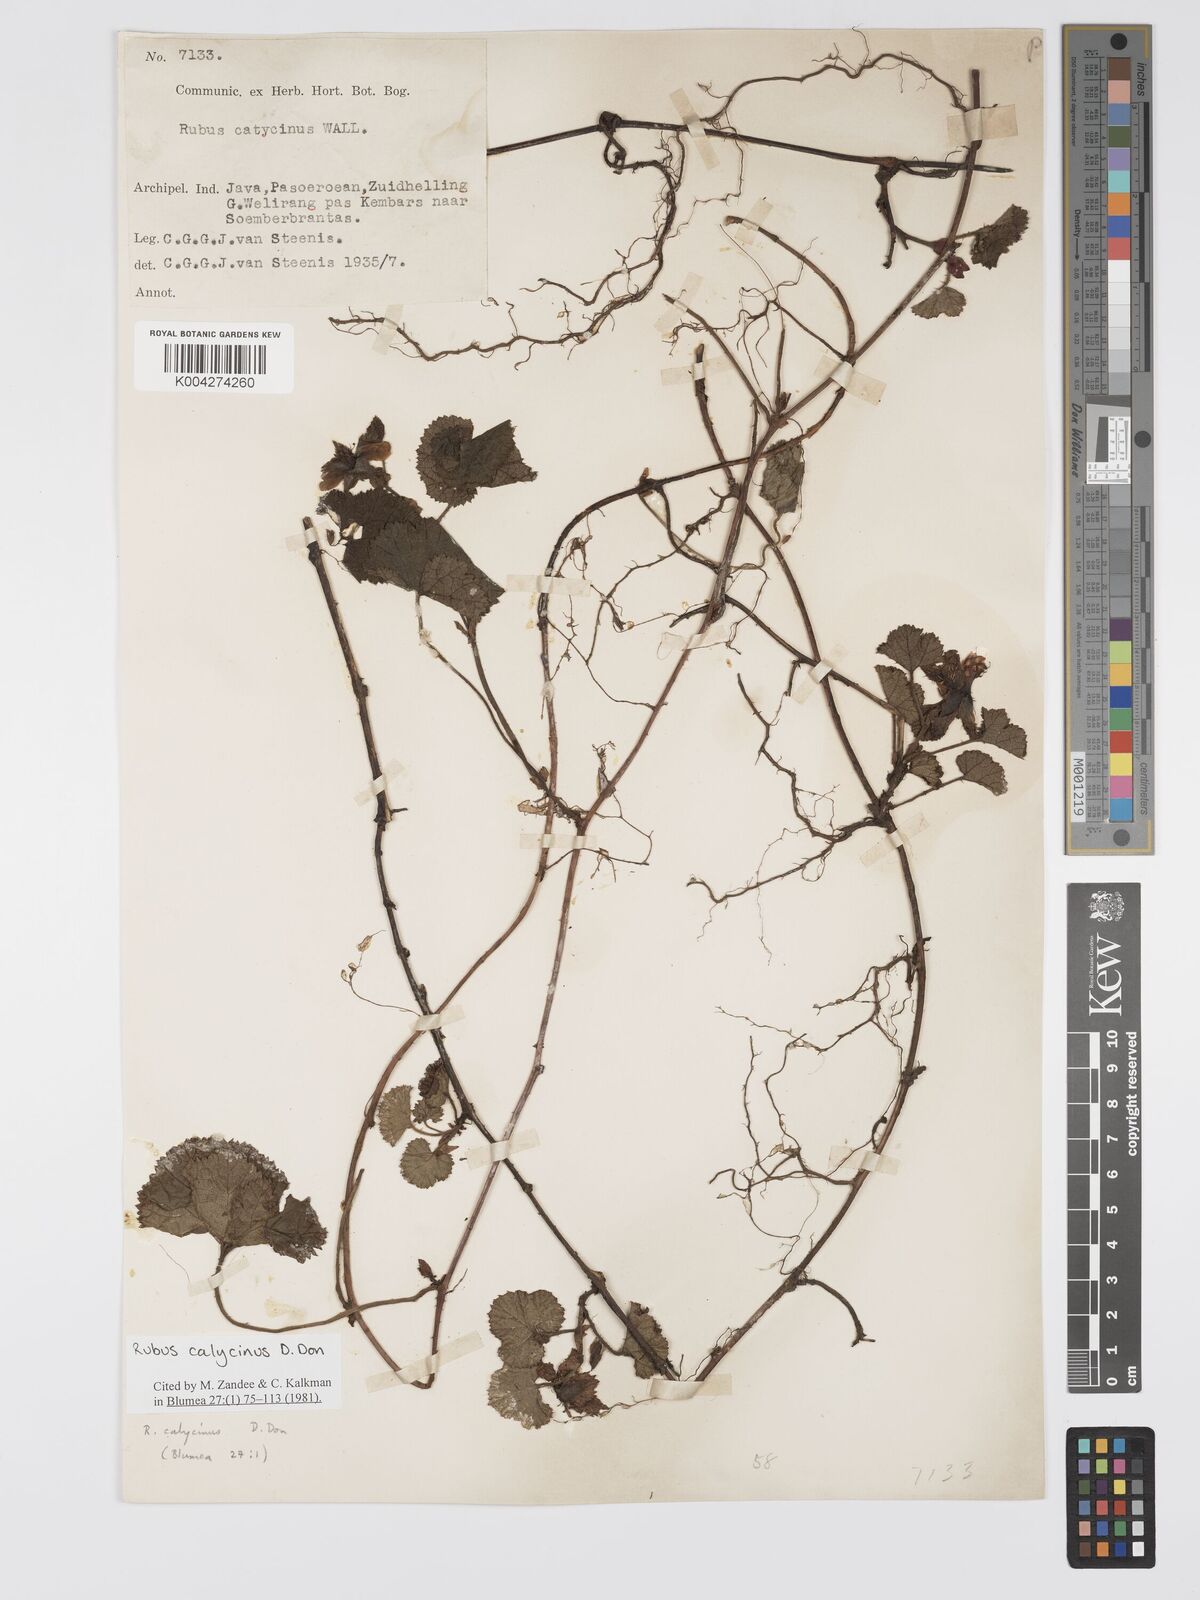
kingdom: Plantae
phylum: Tracheophyta
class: Magnoliopsida
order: Rosales
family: Rosaceae
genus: Rubus
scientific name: Rubus calycinus
